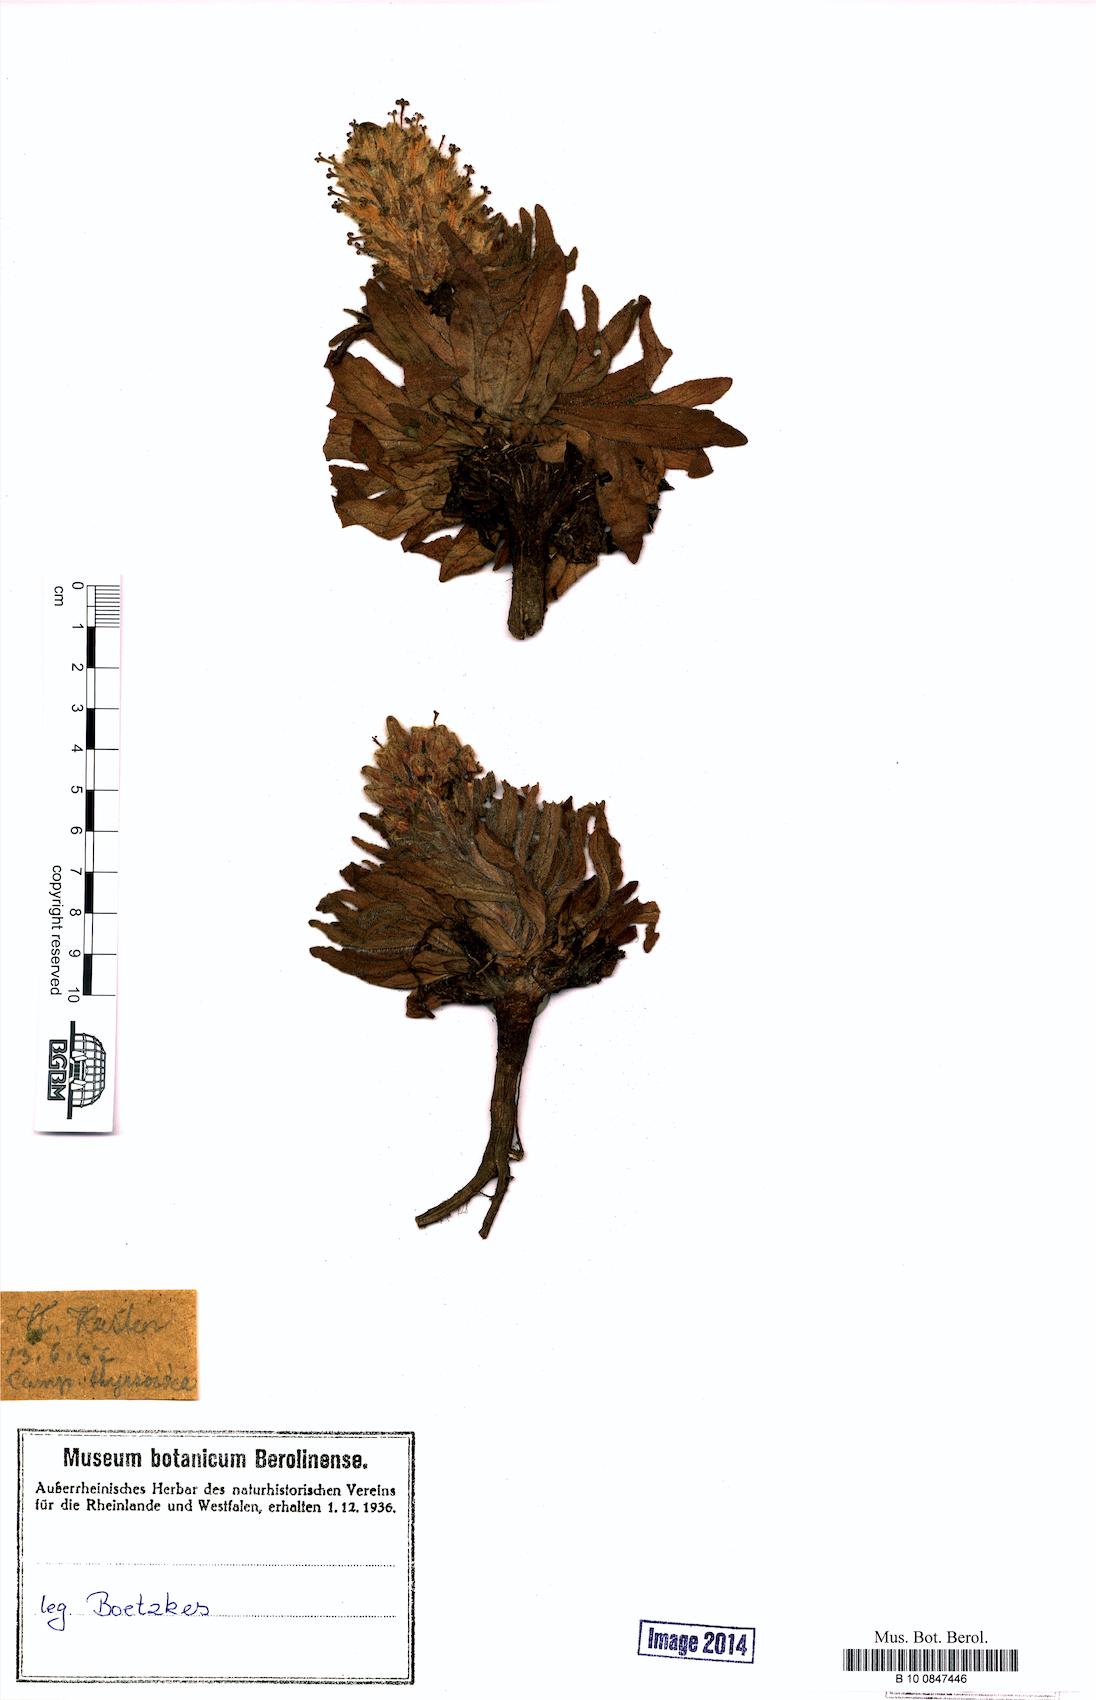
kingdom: Plantae
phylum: Tracheophyta
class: Magnoliopsida
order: Asterales
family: Campanulaceae
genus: Campanula
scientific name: Campanula thyrsoides
